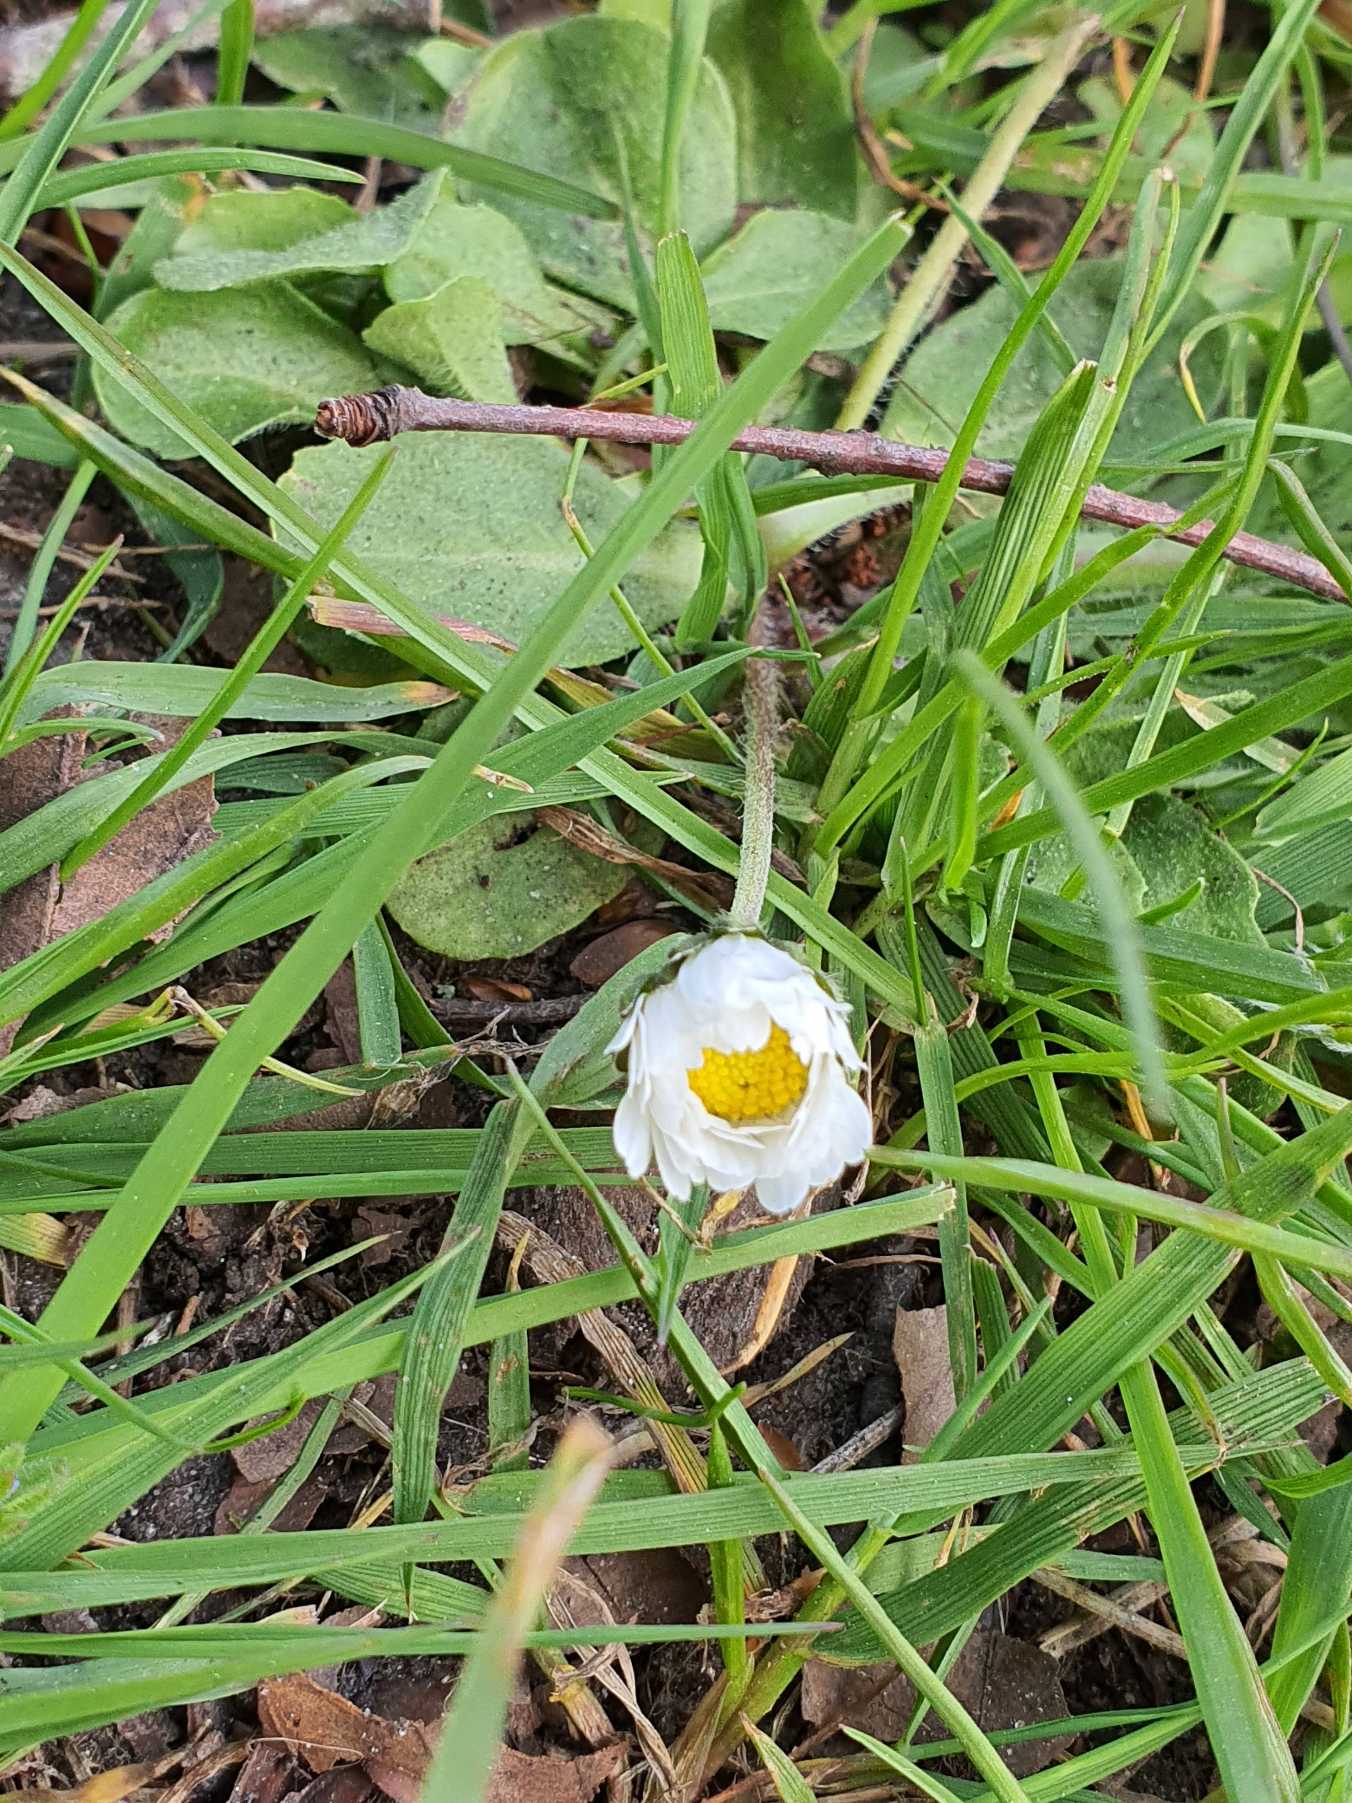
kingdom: Plantae
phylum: Tracheophyta
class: Magnoliopsida
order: Asterales
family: Asteraceae
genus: Bellis
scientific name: Bellis perennis
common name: Tusindfryd
